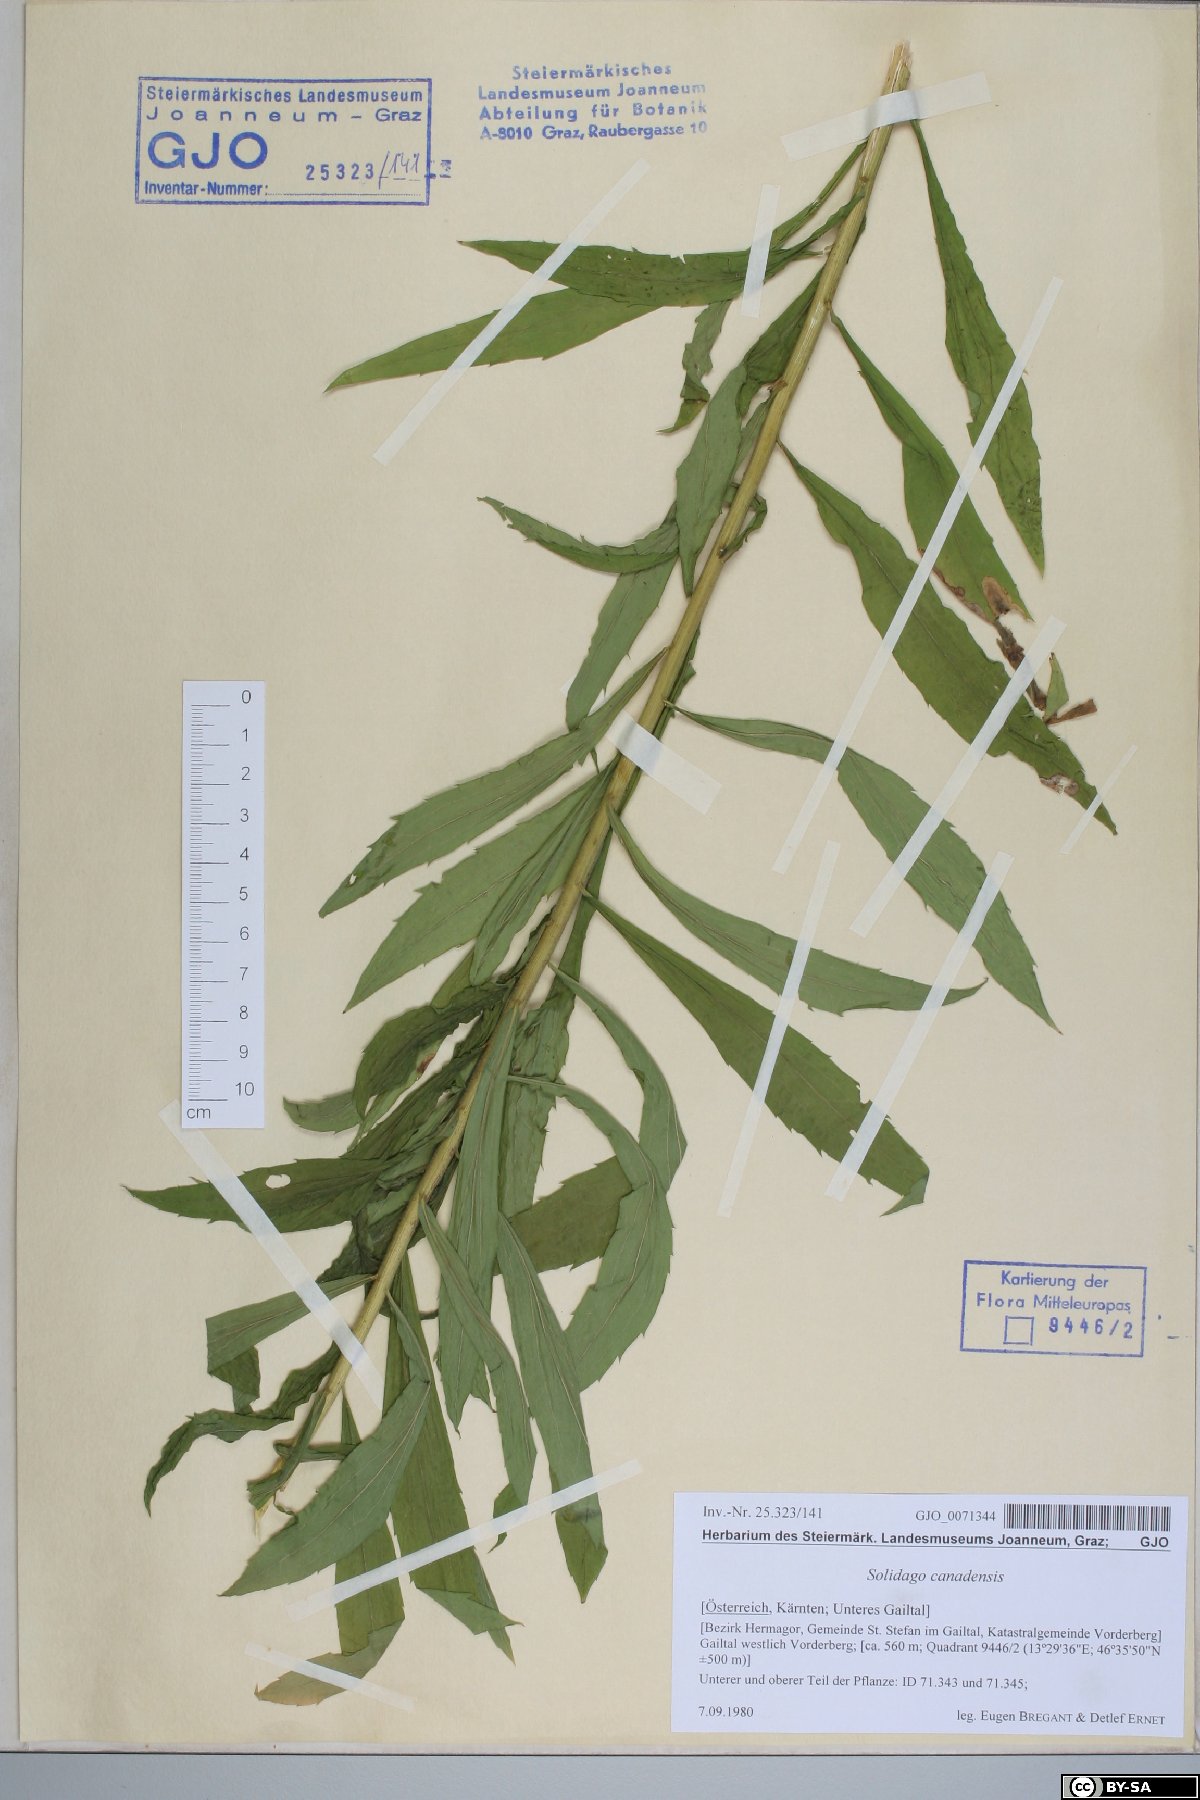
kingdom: Plantae
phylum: Tracheophyta
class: Magnoliopsida
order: Asterales
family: Asteraceae
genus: Solidago
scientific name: Solidago canadensis
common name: Canada goldenrod
